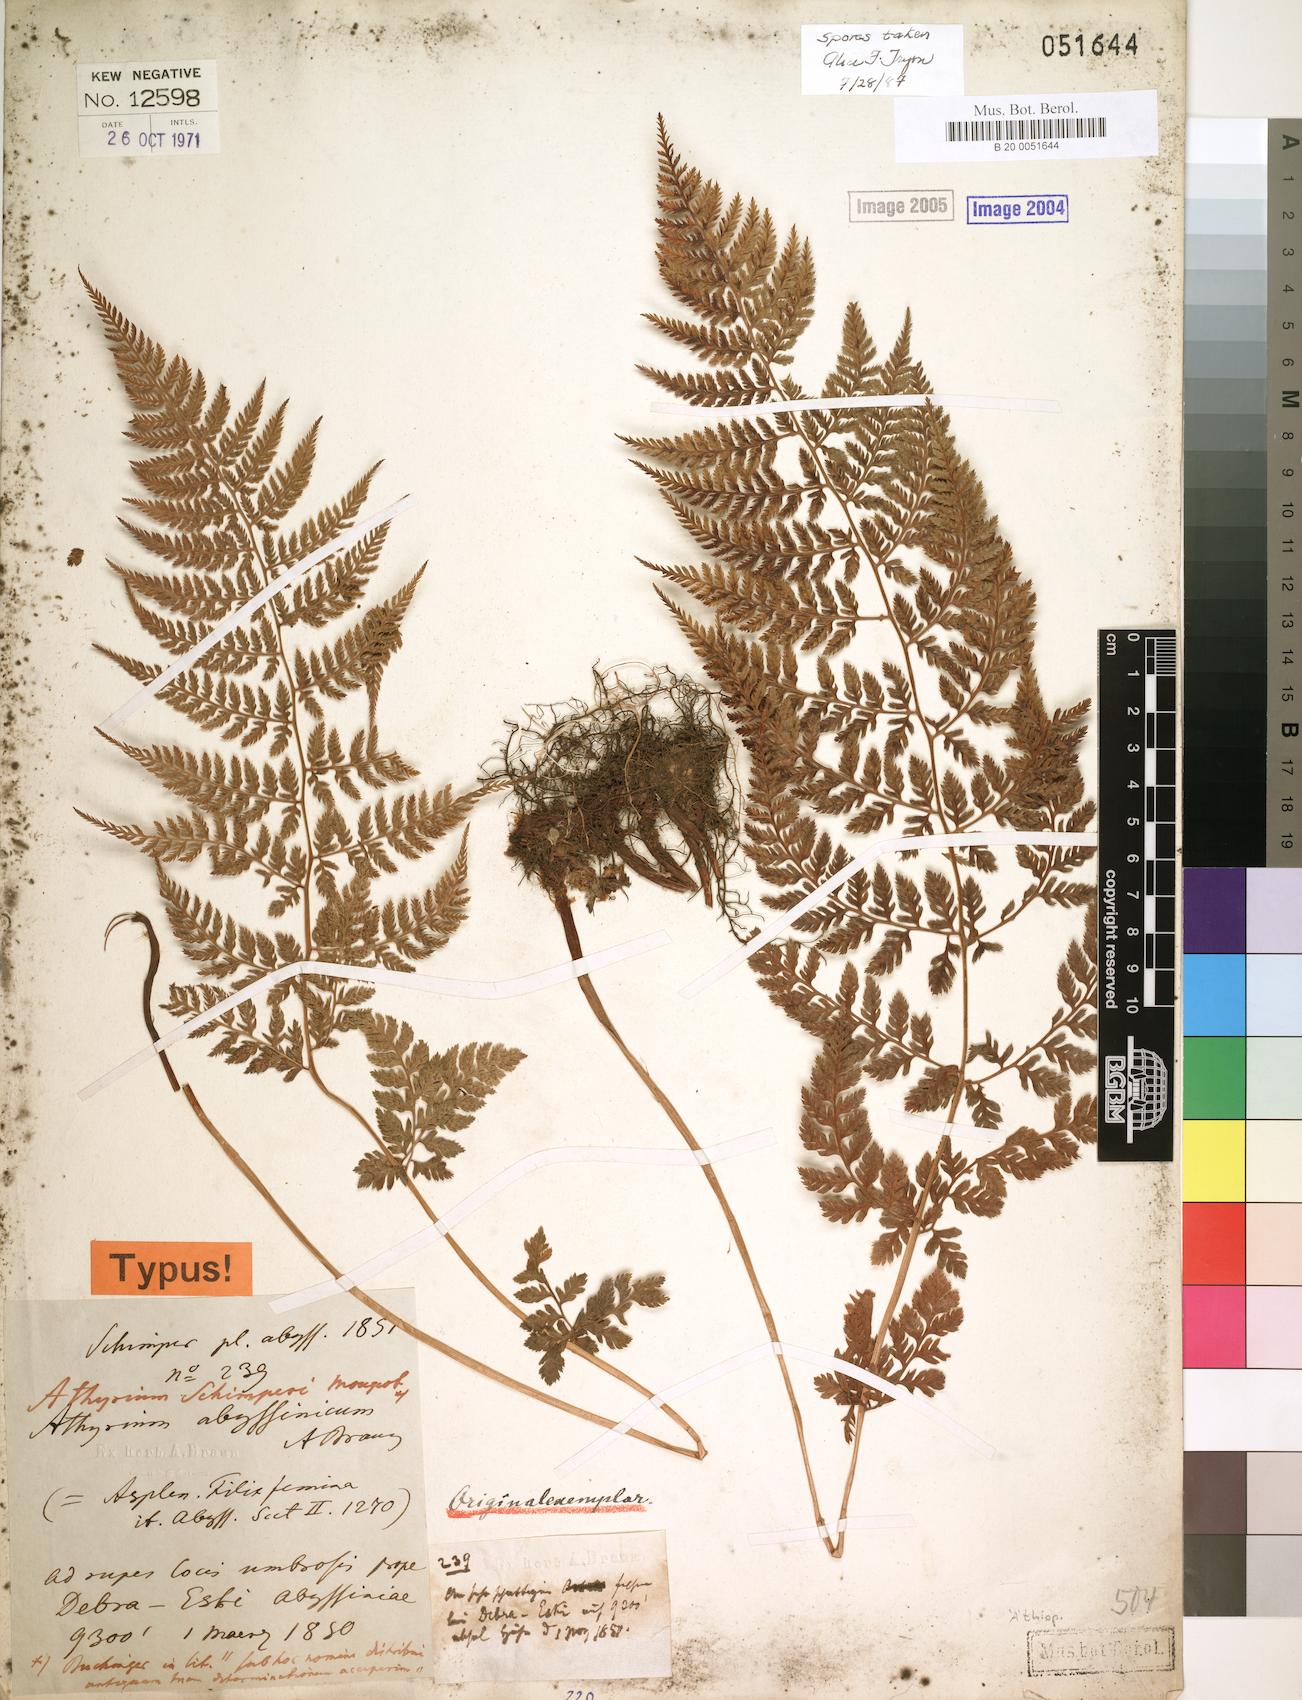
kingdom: Plantae
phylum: Tracheophyta
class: Polypodiopsida
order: Polypodiales
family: Athyriaceae
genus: Athyrium
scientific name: Athyrium schimperi
